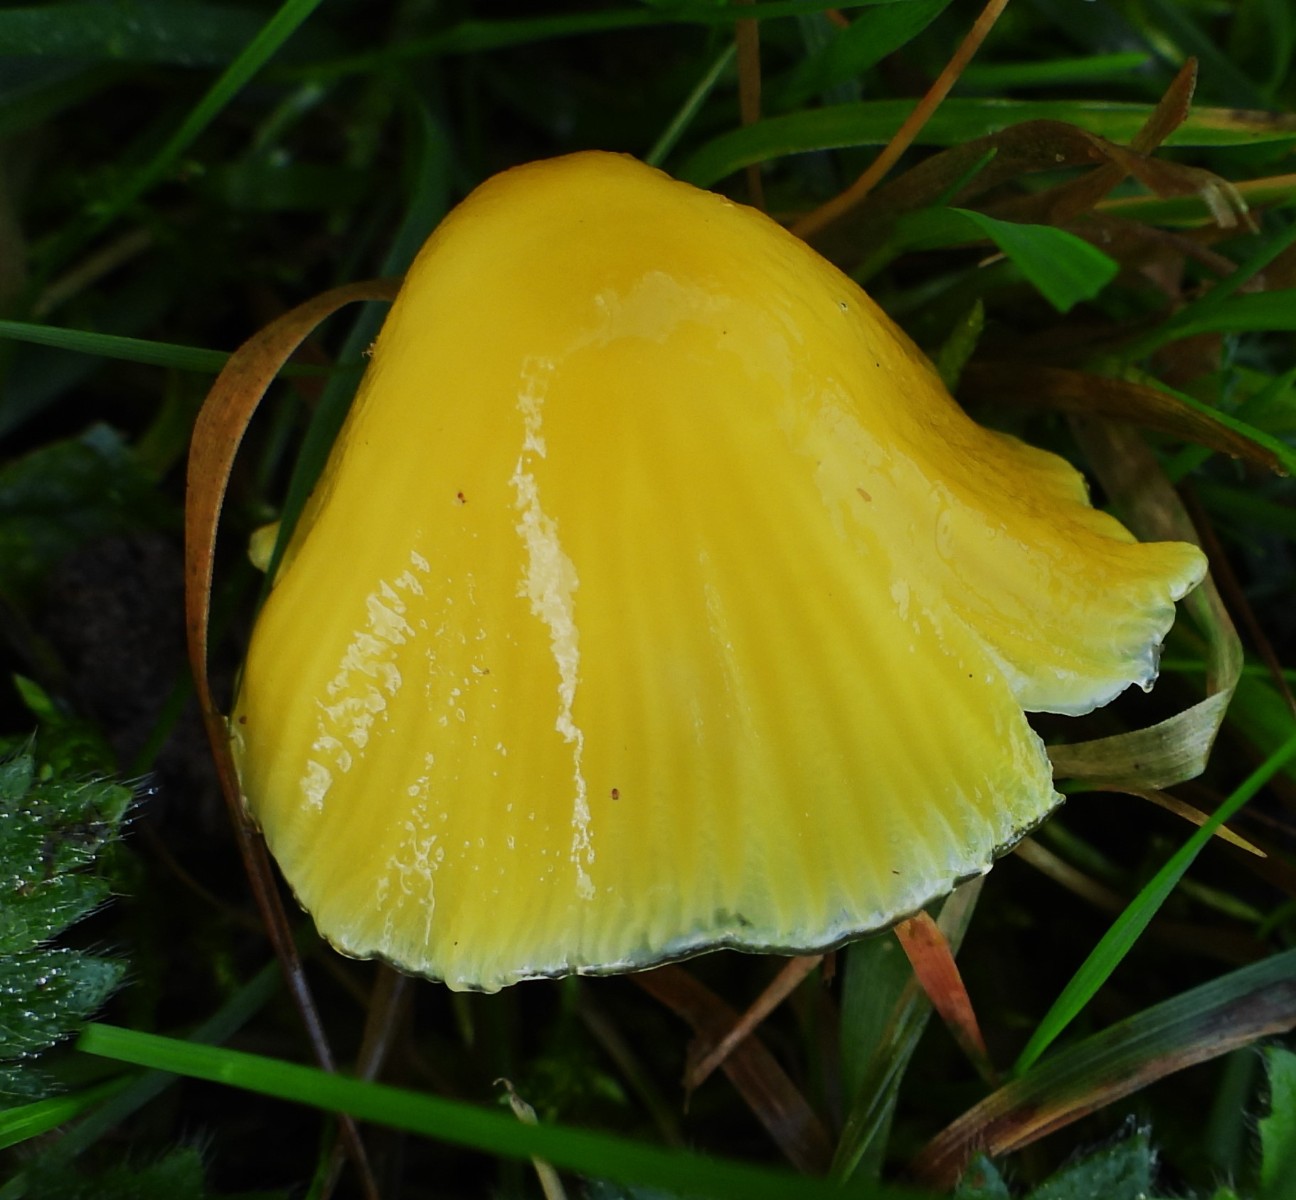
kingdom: Fungi
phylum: Basidiomycota
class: Agaricomycetes
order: Agaricales
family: Hygrophoraceae
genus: Hygrocybe
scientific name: Hygrocybe glutinipes
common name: slimstokket vokshat
